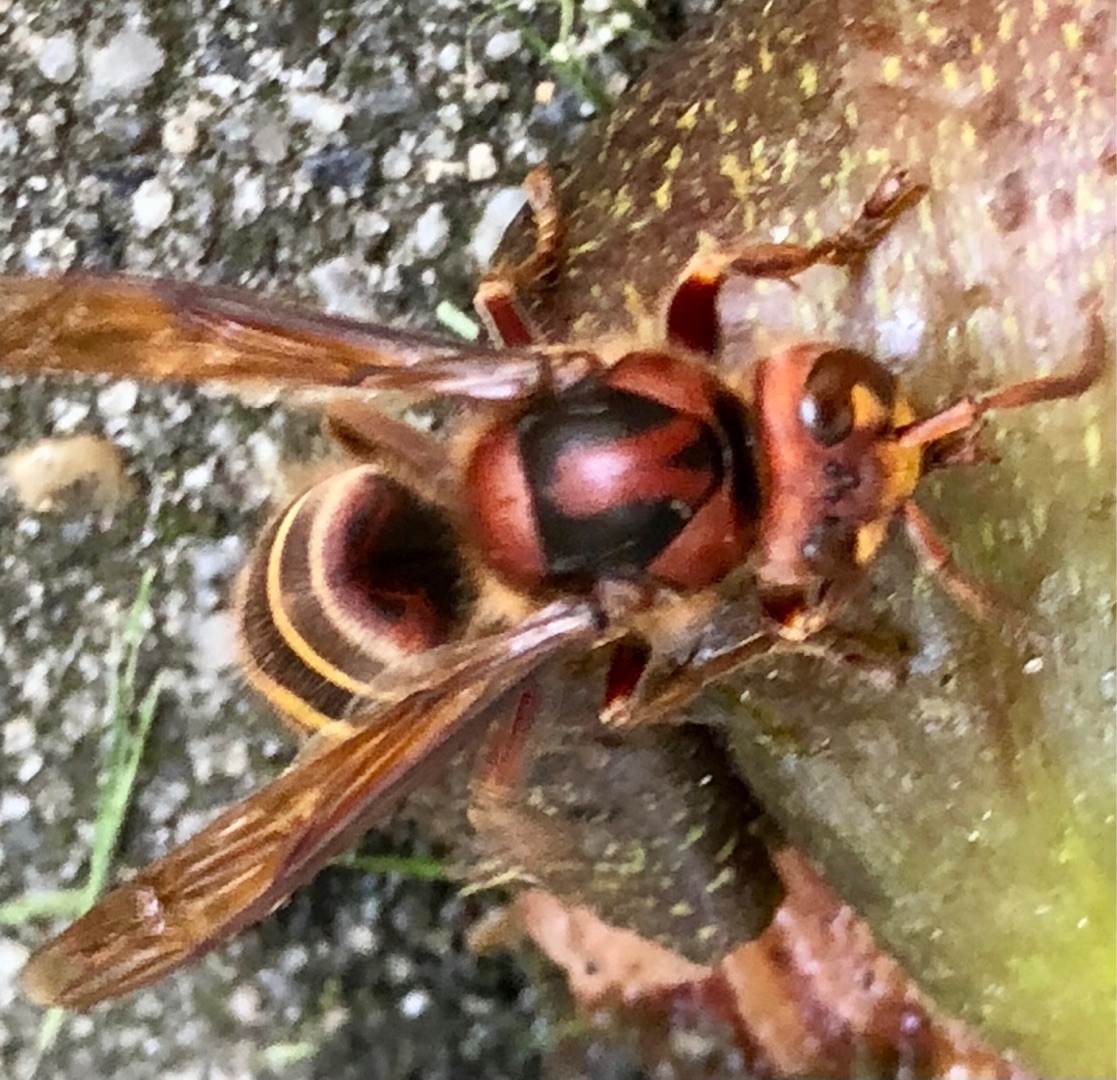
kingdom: Animalia
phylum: Arthropoda
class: Insecta
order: Hymenoptera
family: Vespidae
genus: Vespa
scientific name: Vespa crabro
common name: Stor gedehams
